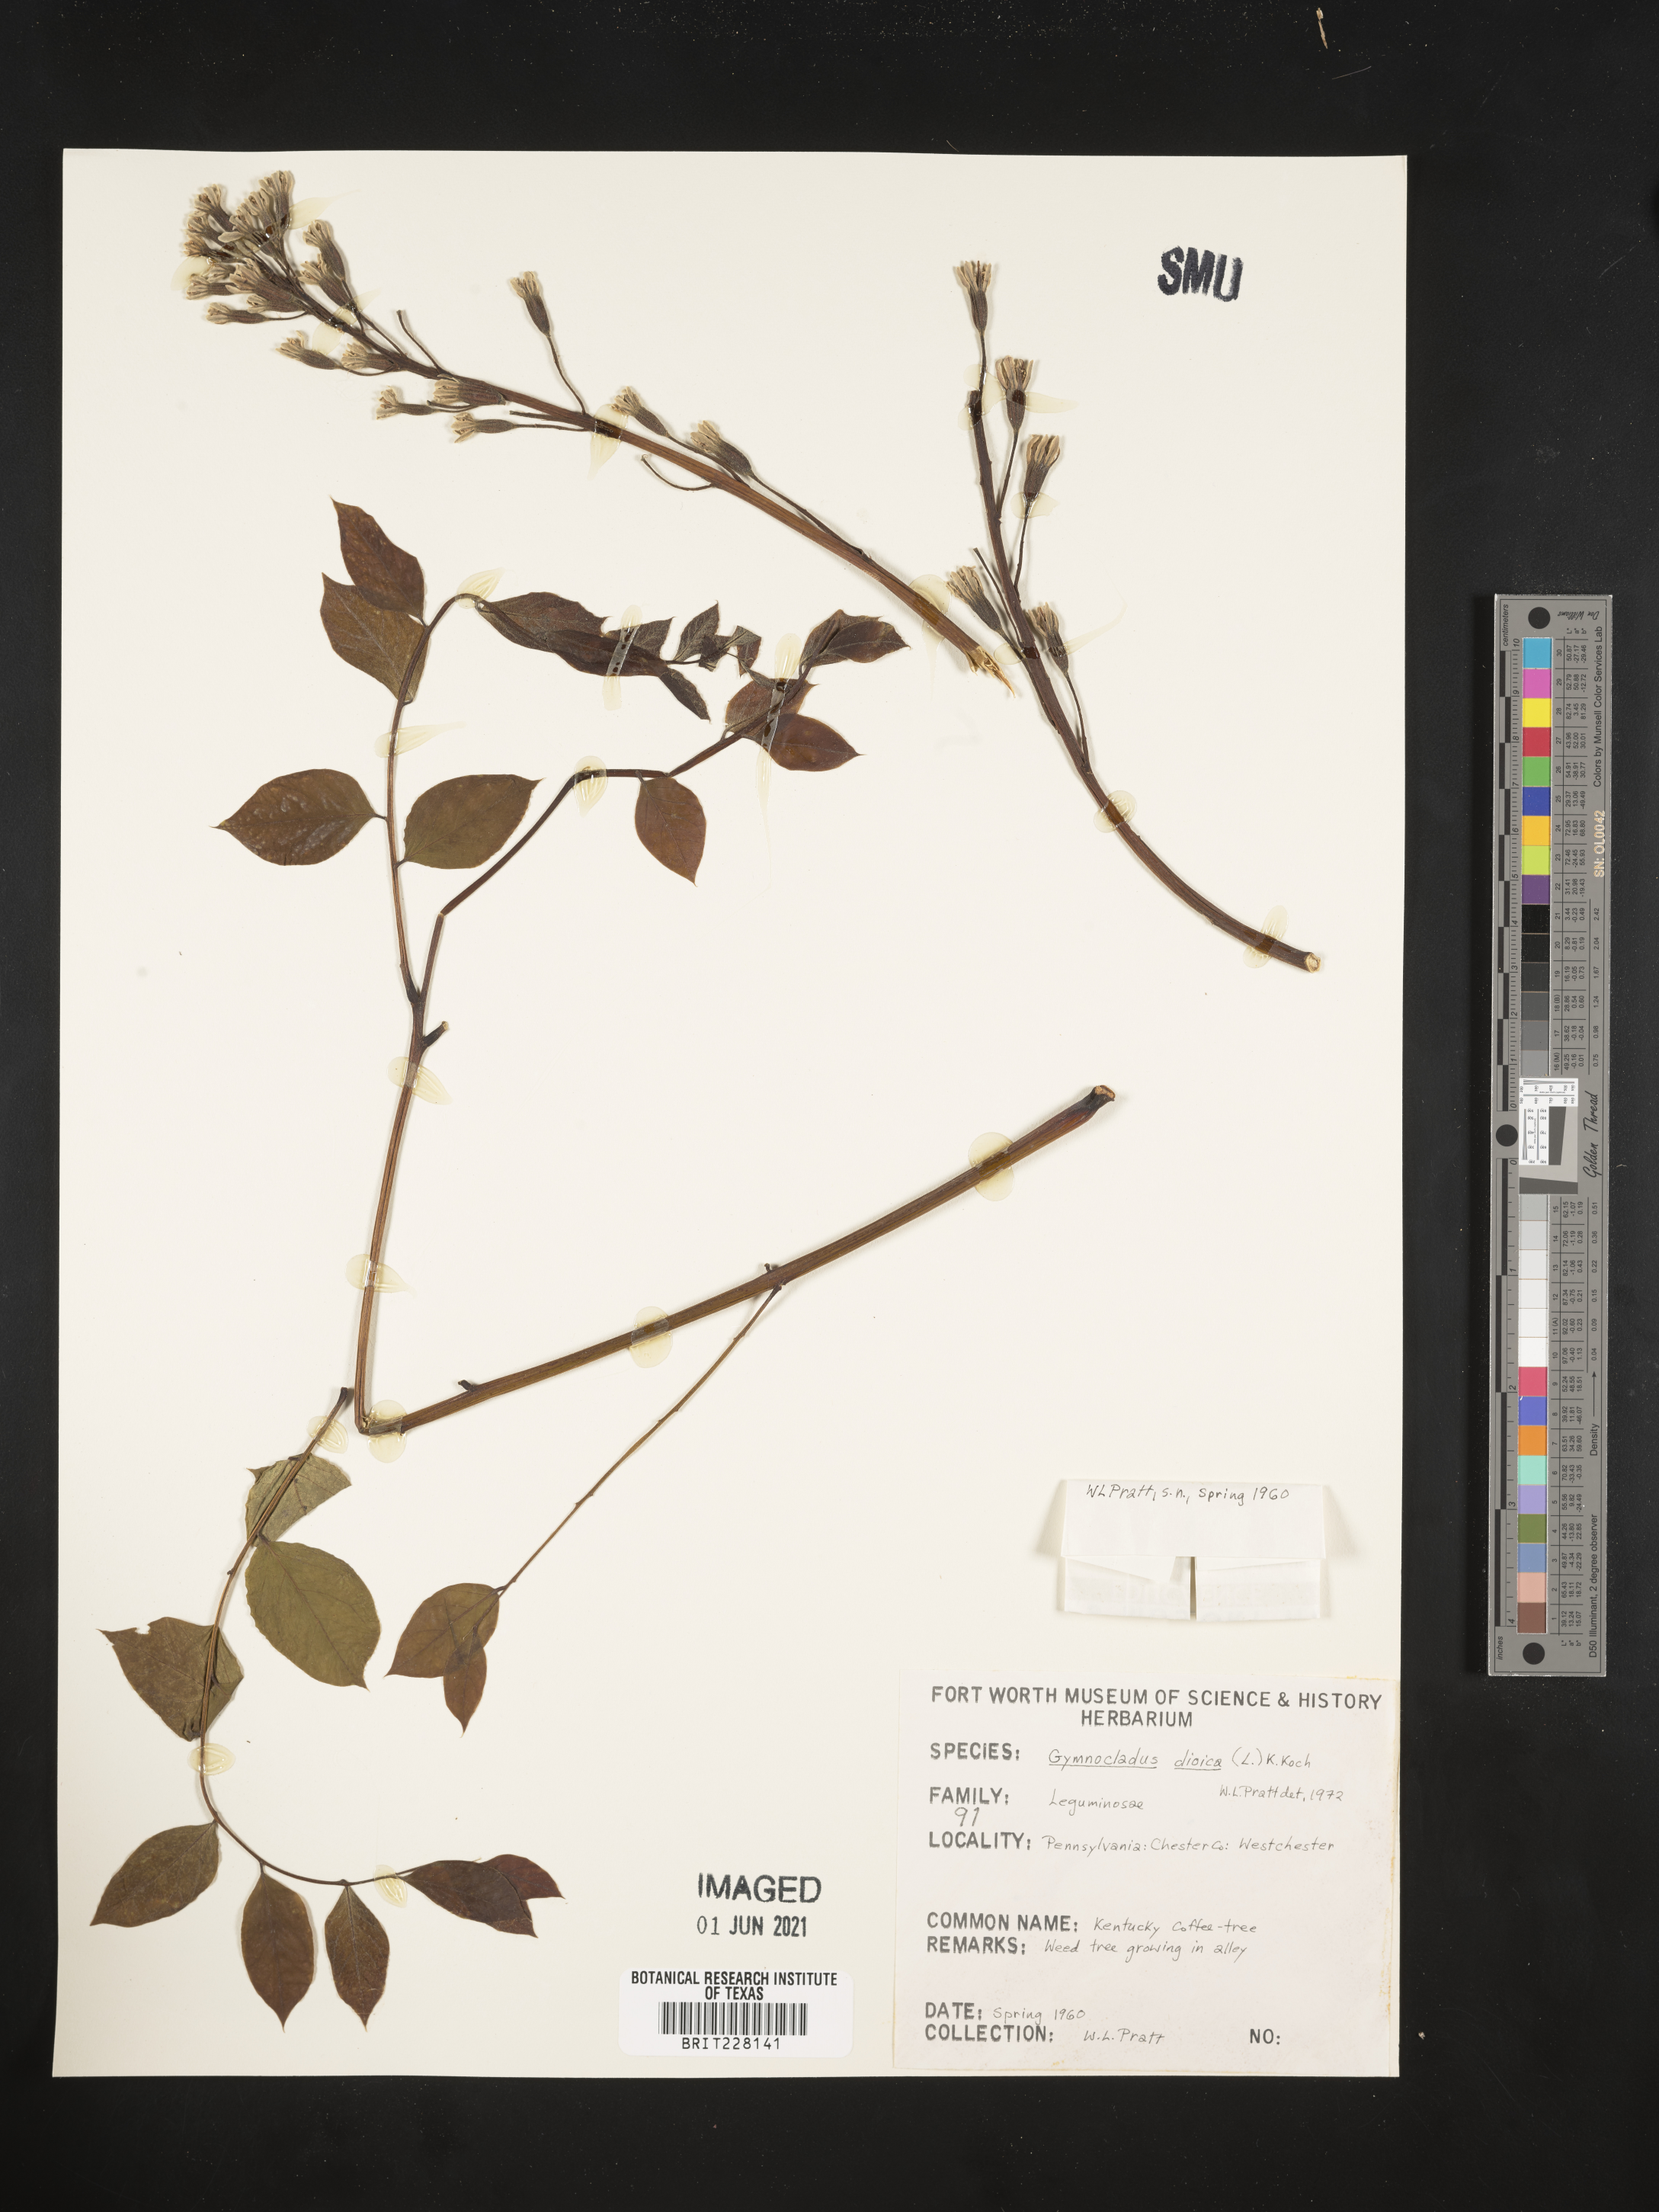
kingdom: Plantae
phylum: Tracheophyta
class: Magnoliopsida
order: Fabales
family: Fabaceae
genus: Gymnocladus
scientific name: Gymnocladus dioicus
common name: Kentucky coffee-tree
